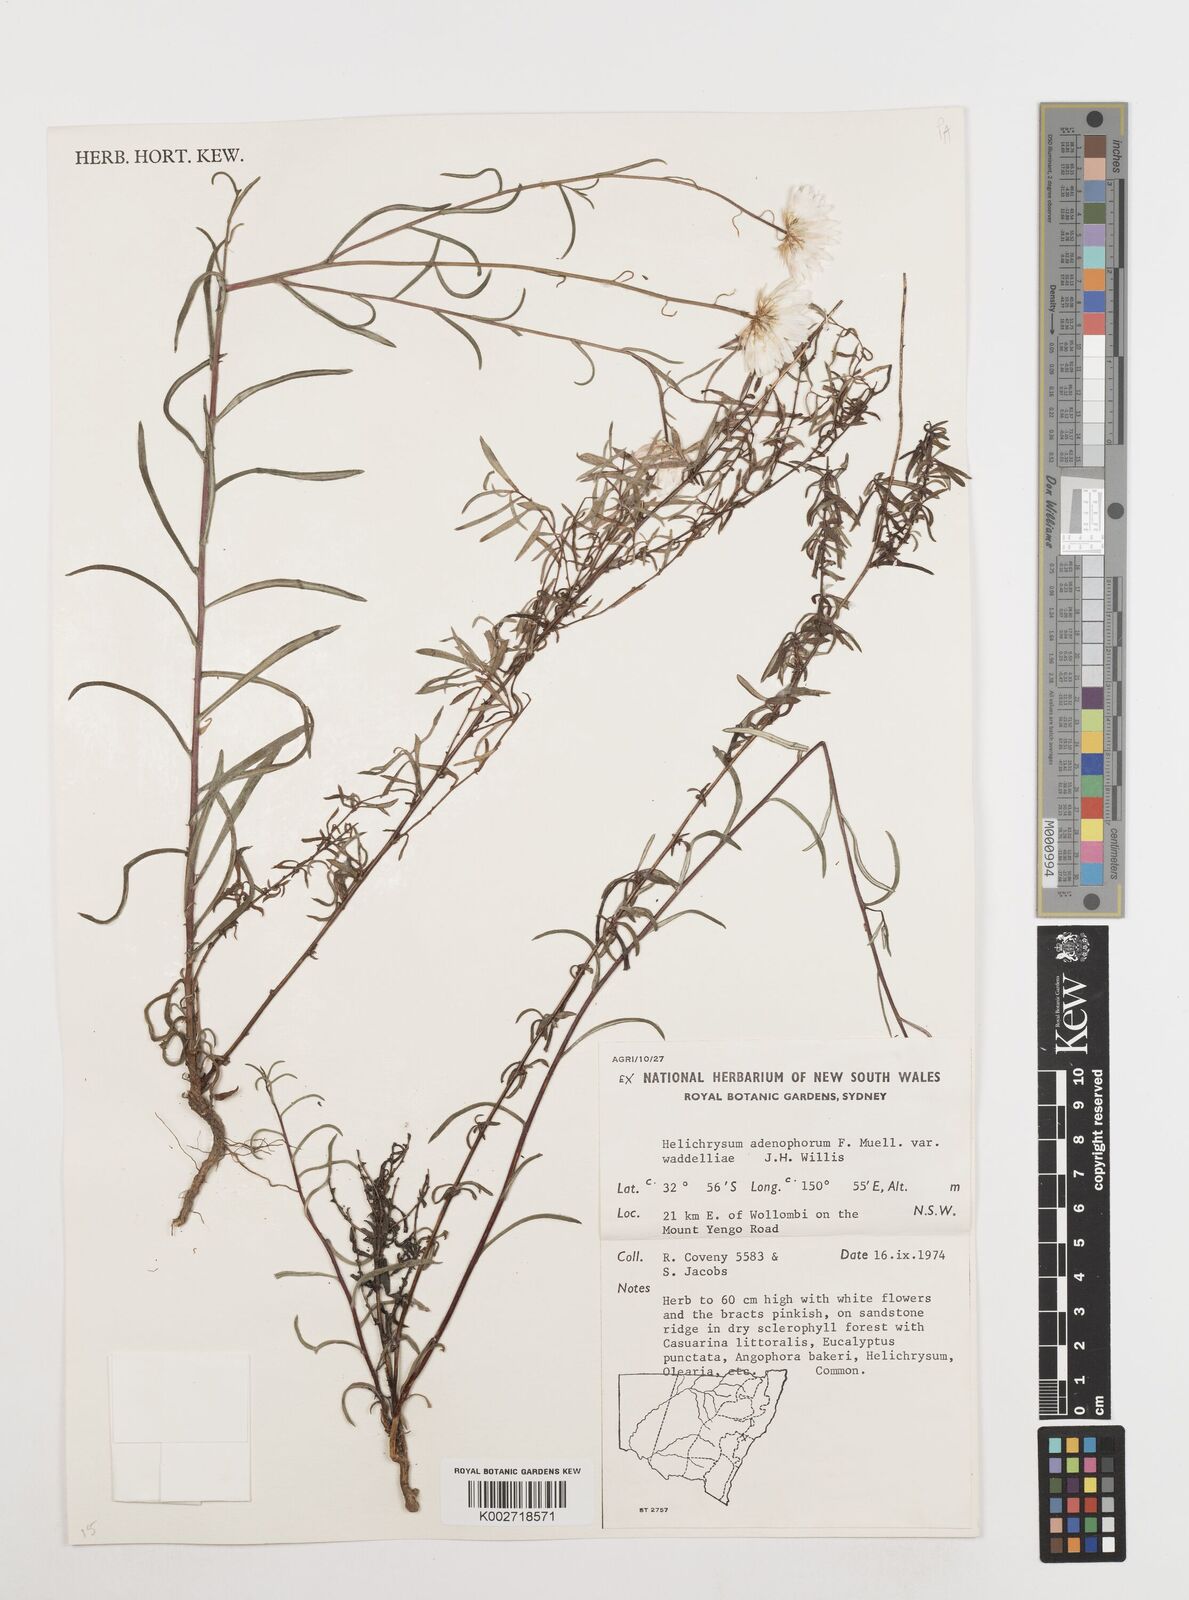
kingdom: Plantae
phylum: Tracheophyta
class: Magnoliopsida
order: Asterales
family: Asteraceae
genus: Coronidium
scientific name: Coronidium waddelliae
